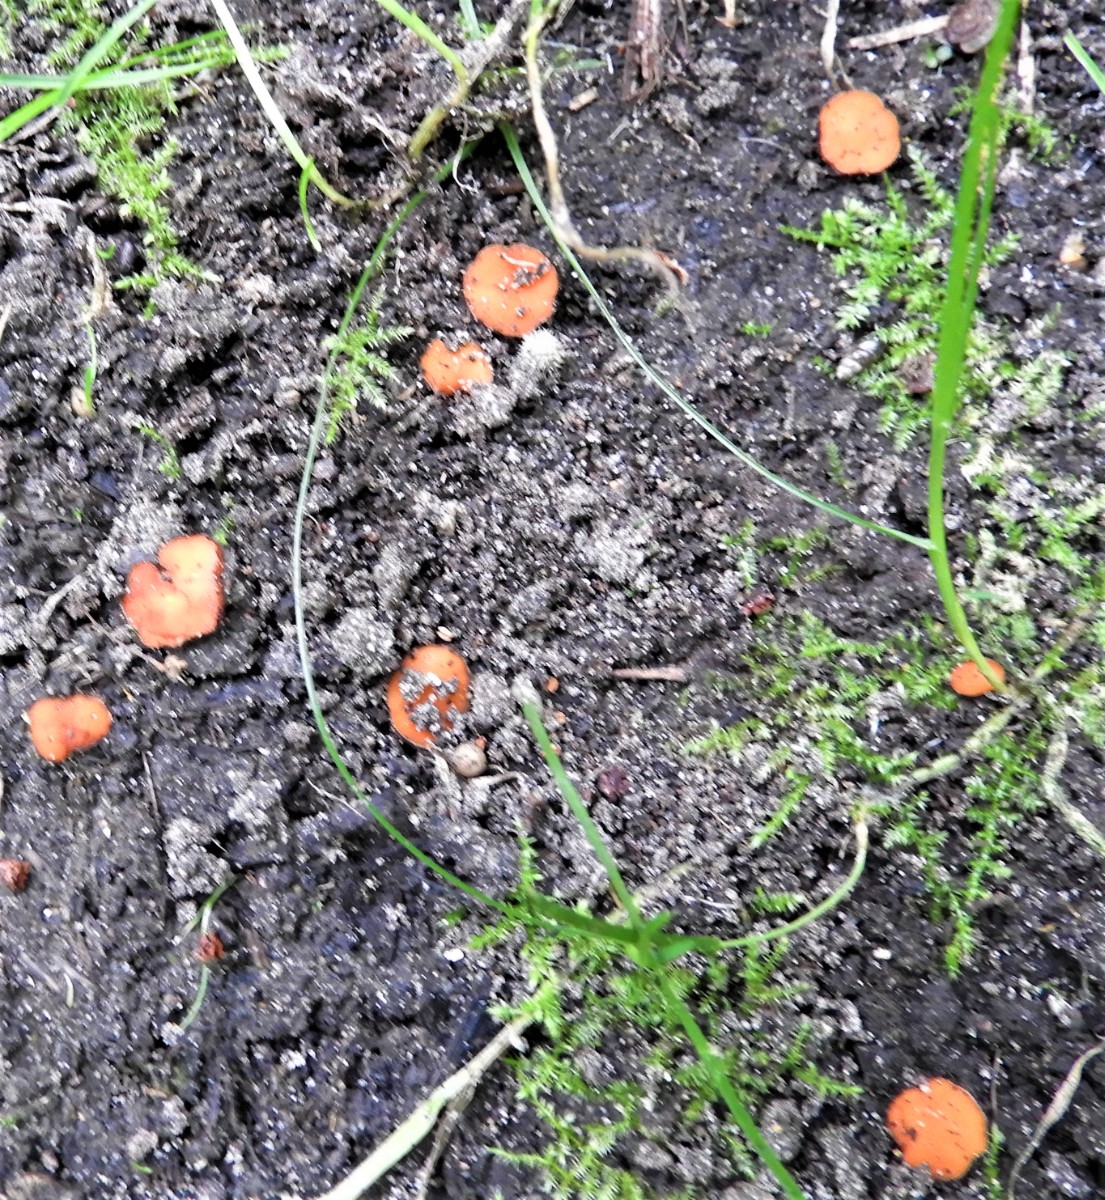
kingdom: Fungi
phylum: Ascomycota
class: Pezizomycetes
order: Pezizales
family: Pyronemataceae
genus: Scutellinia
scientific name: Scutellinia
